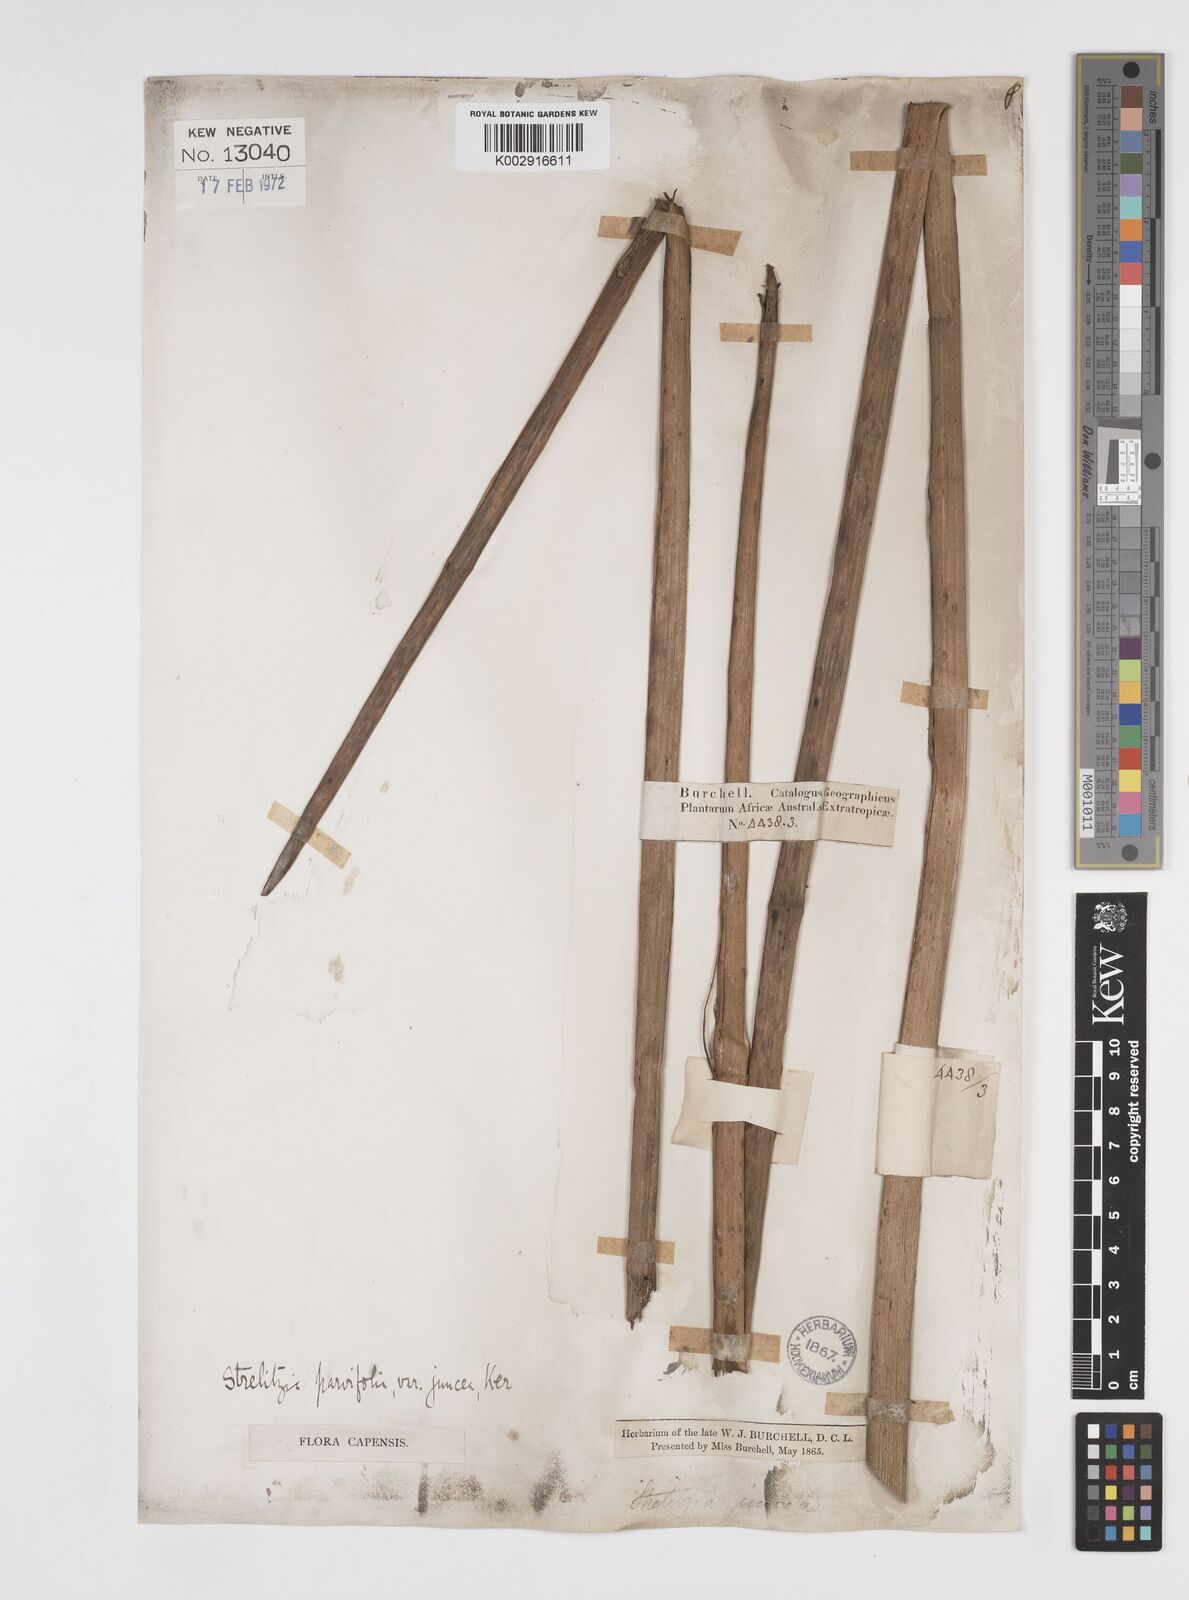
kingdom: Plantae
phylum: Tracheophyta
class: Liliopsida
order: Zingiberales
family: Strelitziaceae
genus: Strelitzia
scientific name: Strelitzia juncea
